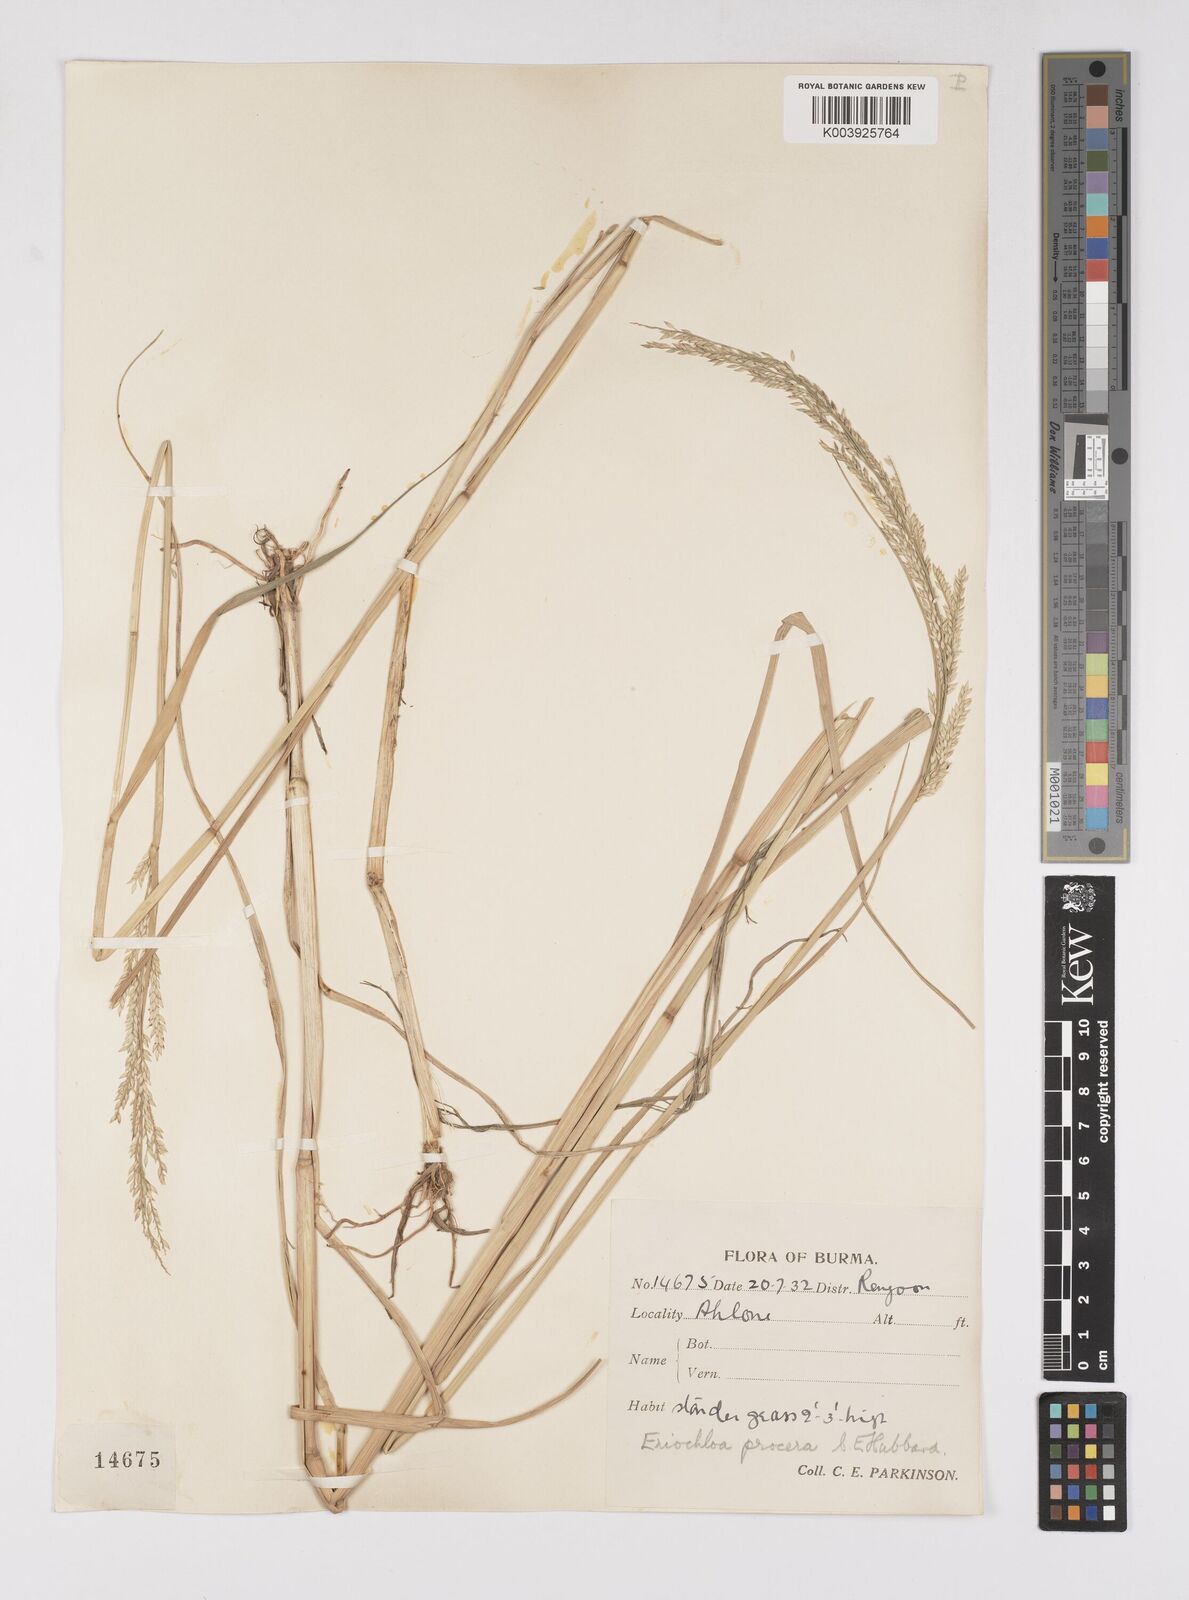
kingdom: Plantae
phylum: Tracheophyta
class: Liliopsida
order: Poales
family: Poaceae
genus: Eriochloa
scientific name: Eriochloa procera
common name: Spring grass
